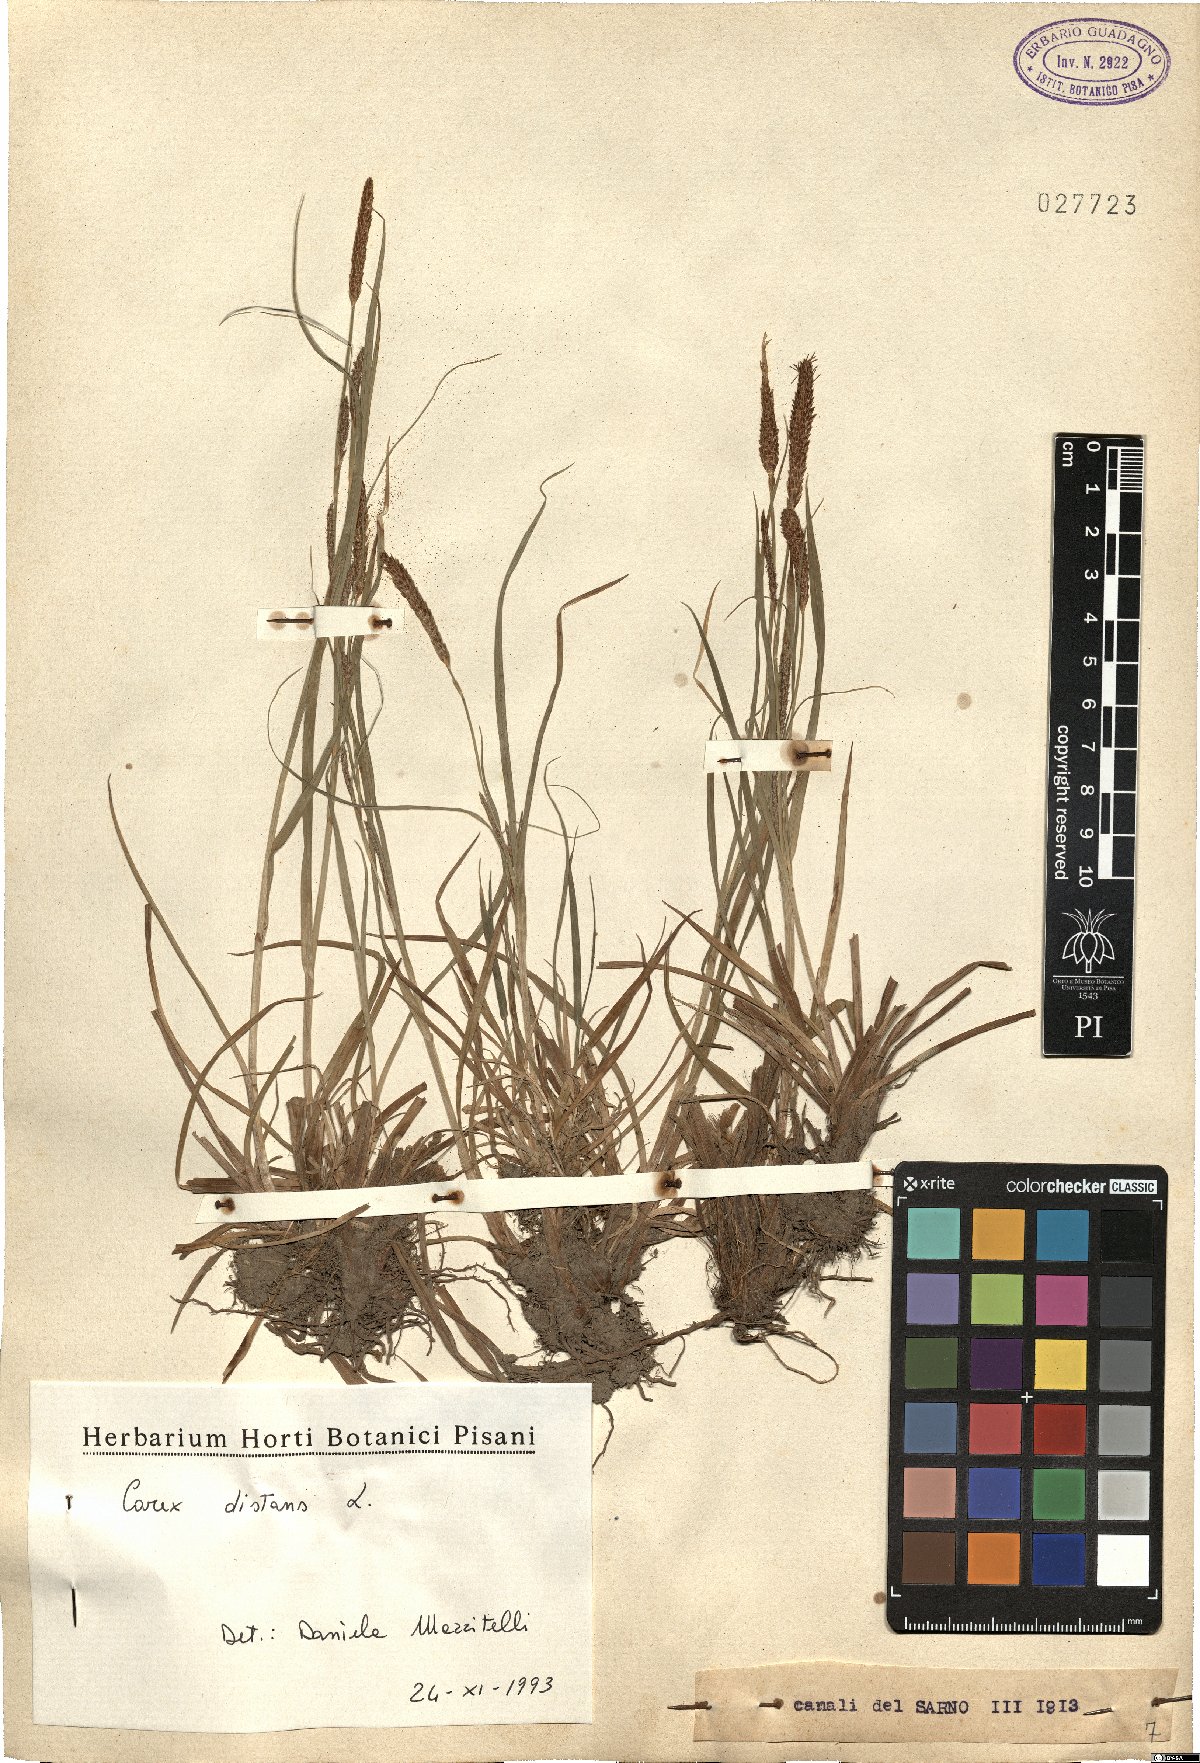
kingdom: Plantae
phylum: Tracheophyta
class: Liliopsida
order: Poales
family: Cyperaceae
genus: Carex
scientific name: Carex distans
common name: Distant sedge
